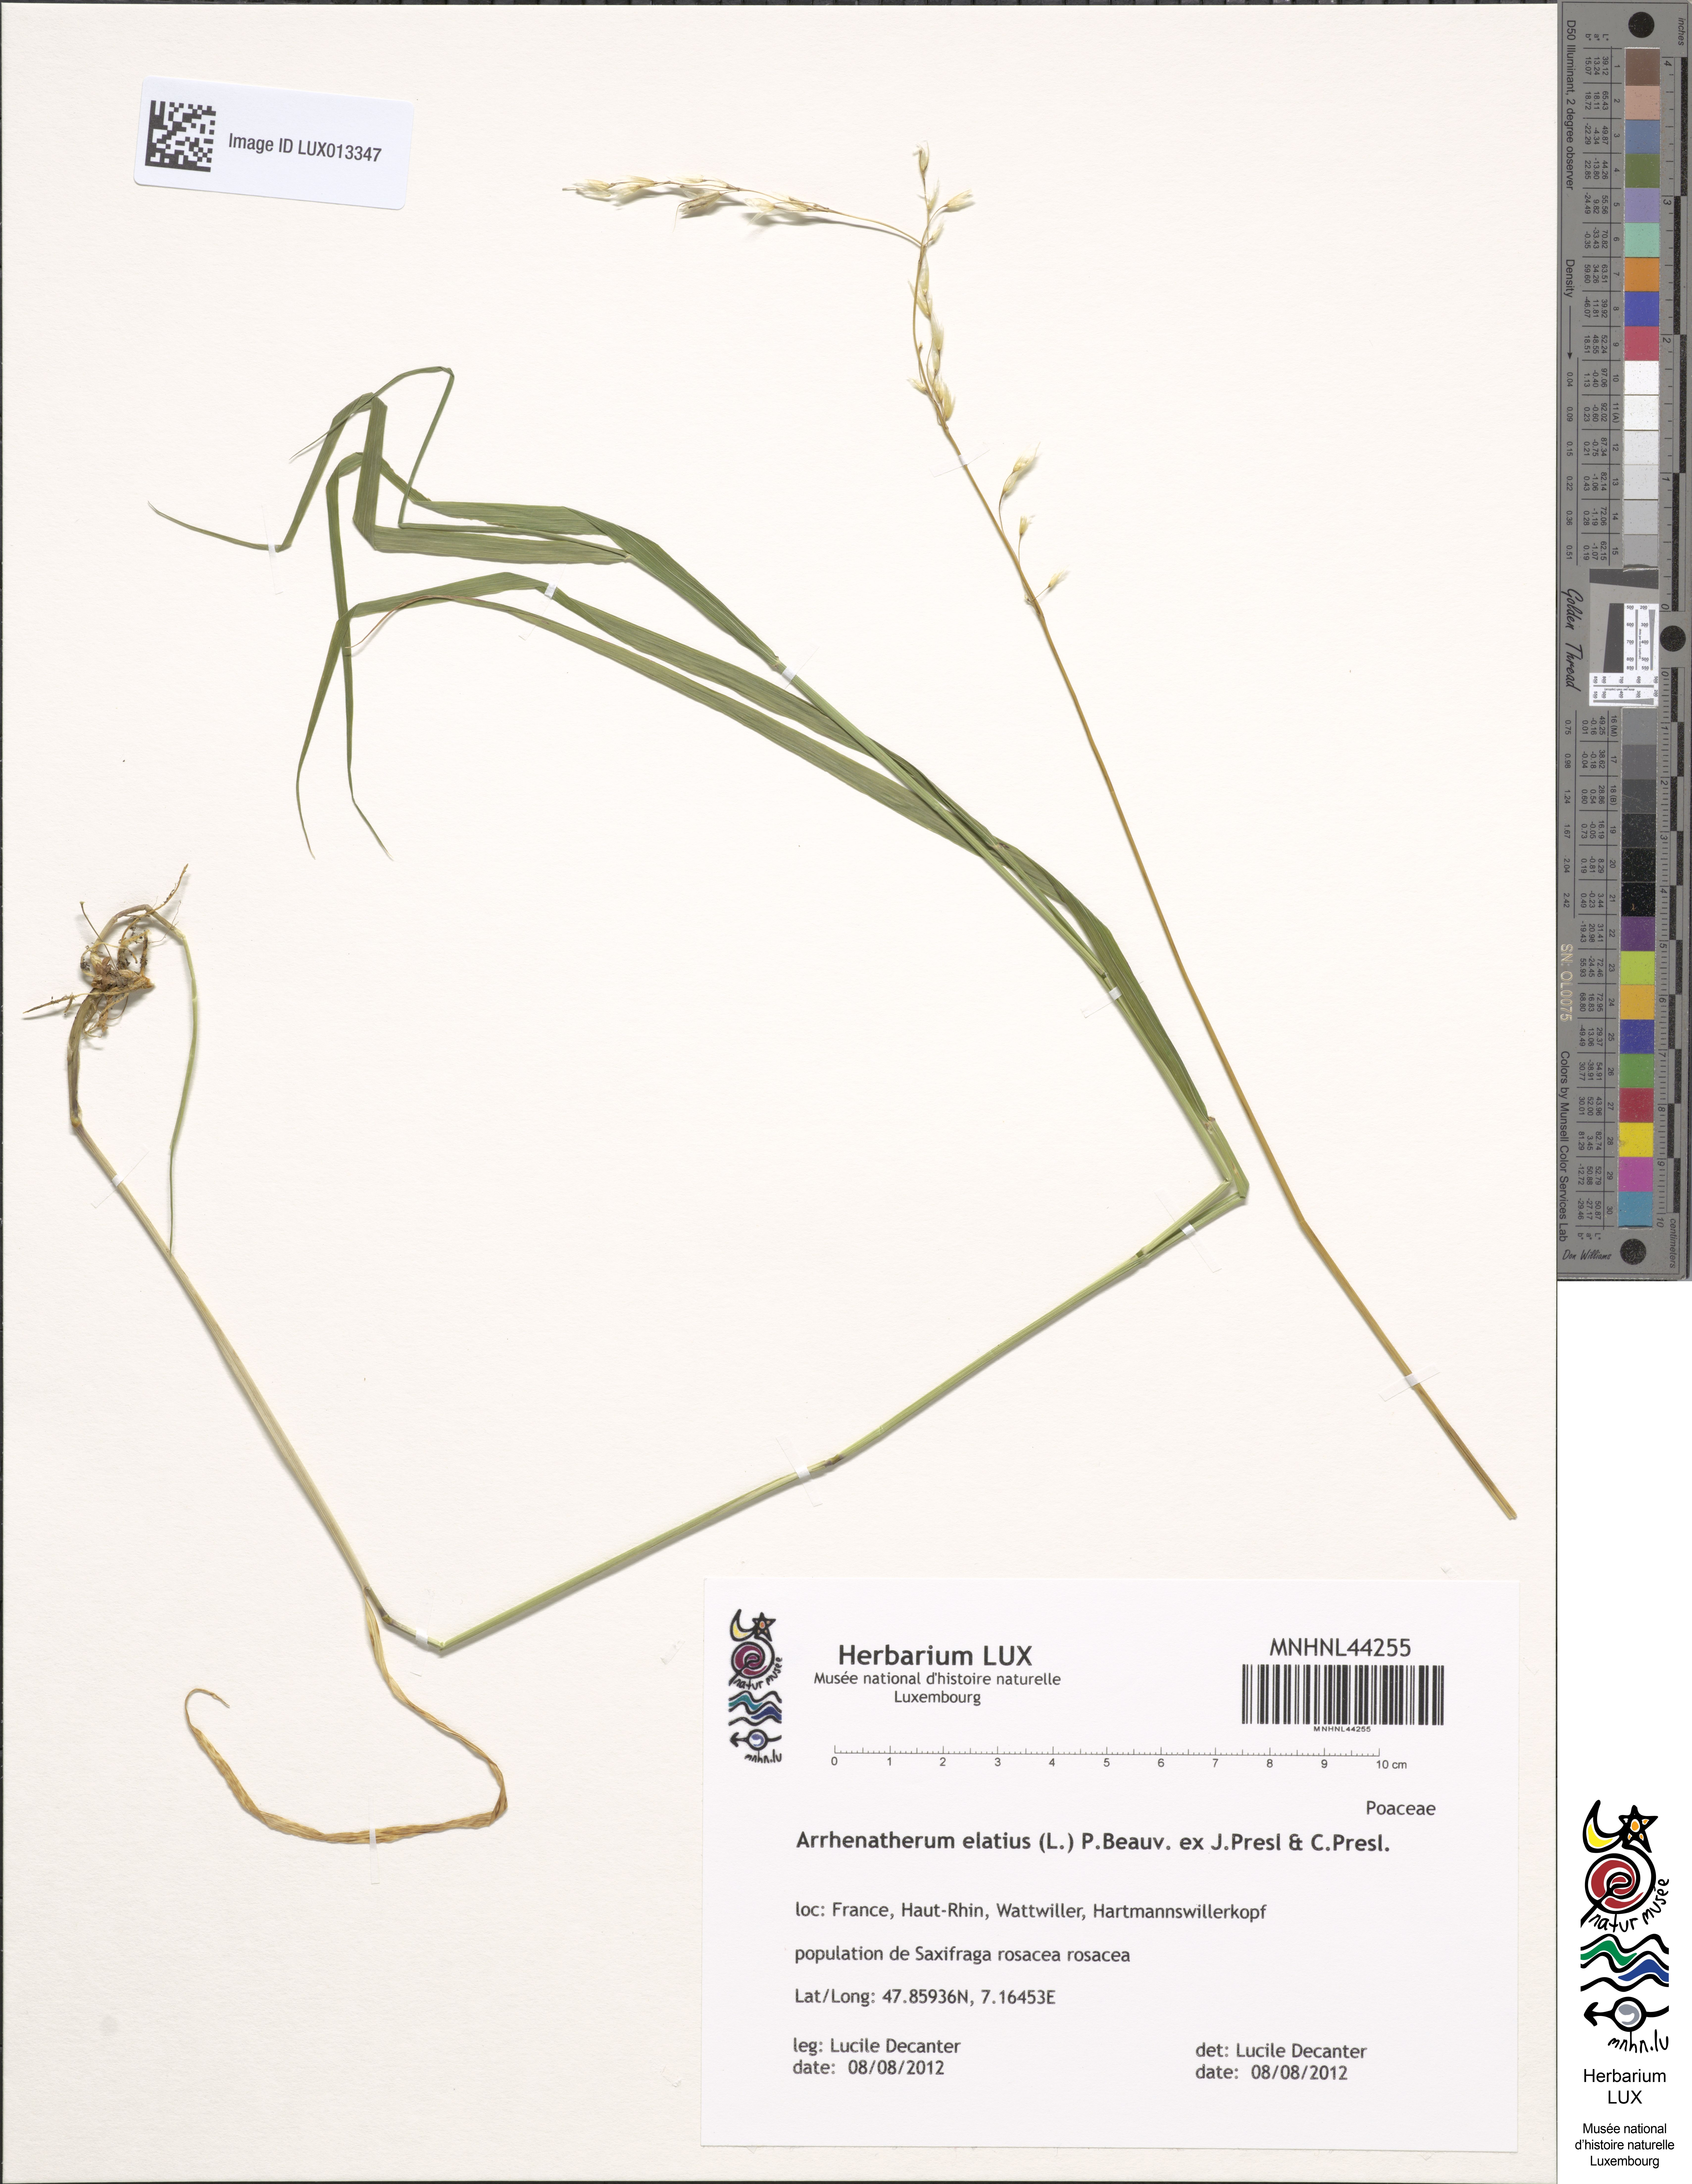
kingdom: Plantae
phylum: Tracheophyta
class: Liliopsida
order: Poales
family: Poaceae
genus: Arrhenatherum
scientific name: Arrhenatherum elatius
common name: Tall oatgrass
